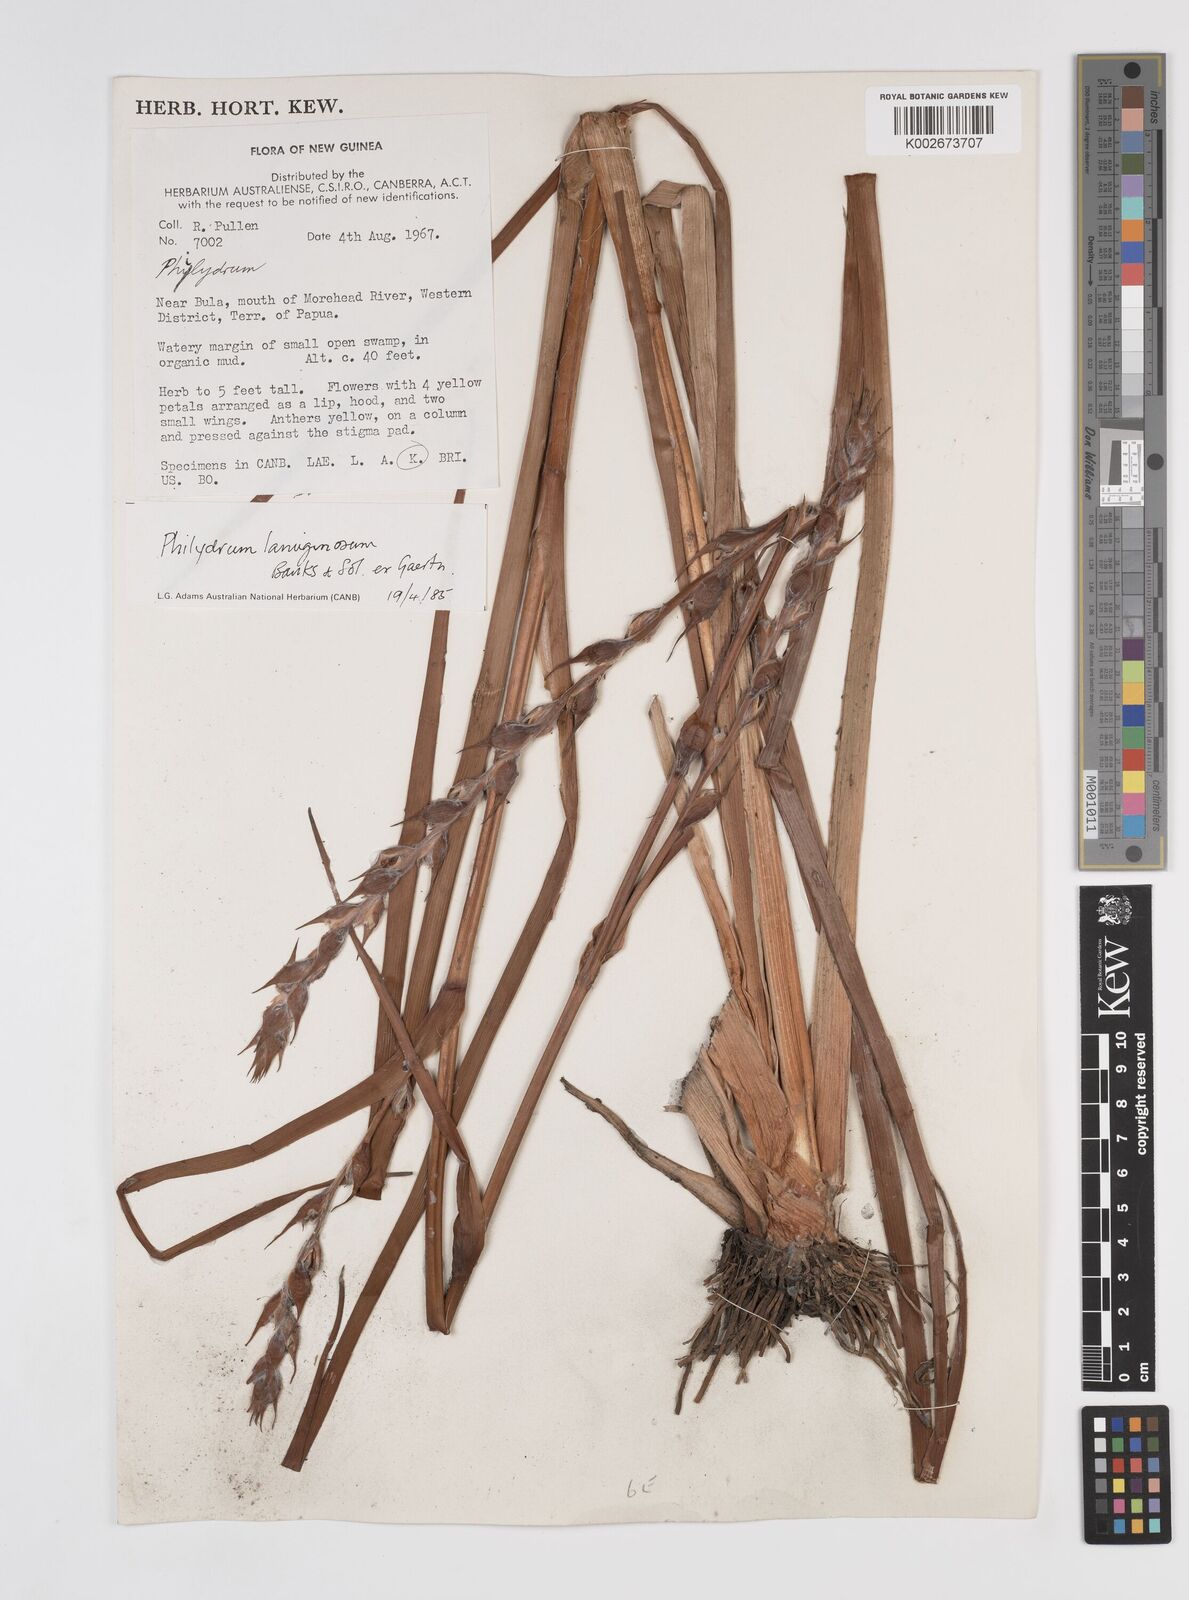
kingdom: Plantae
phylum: Tracheophyta
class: Liliopsida
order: Commelinales
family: Philydraceae
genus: Philydrum
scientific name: Philydrum lanuginosum
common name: Woolly frog's mouth
